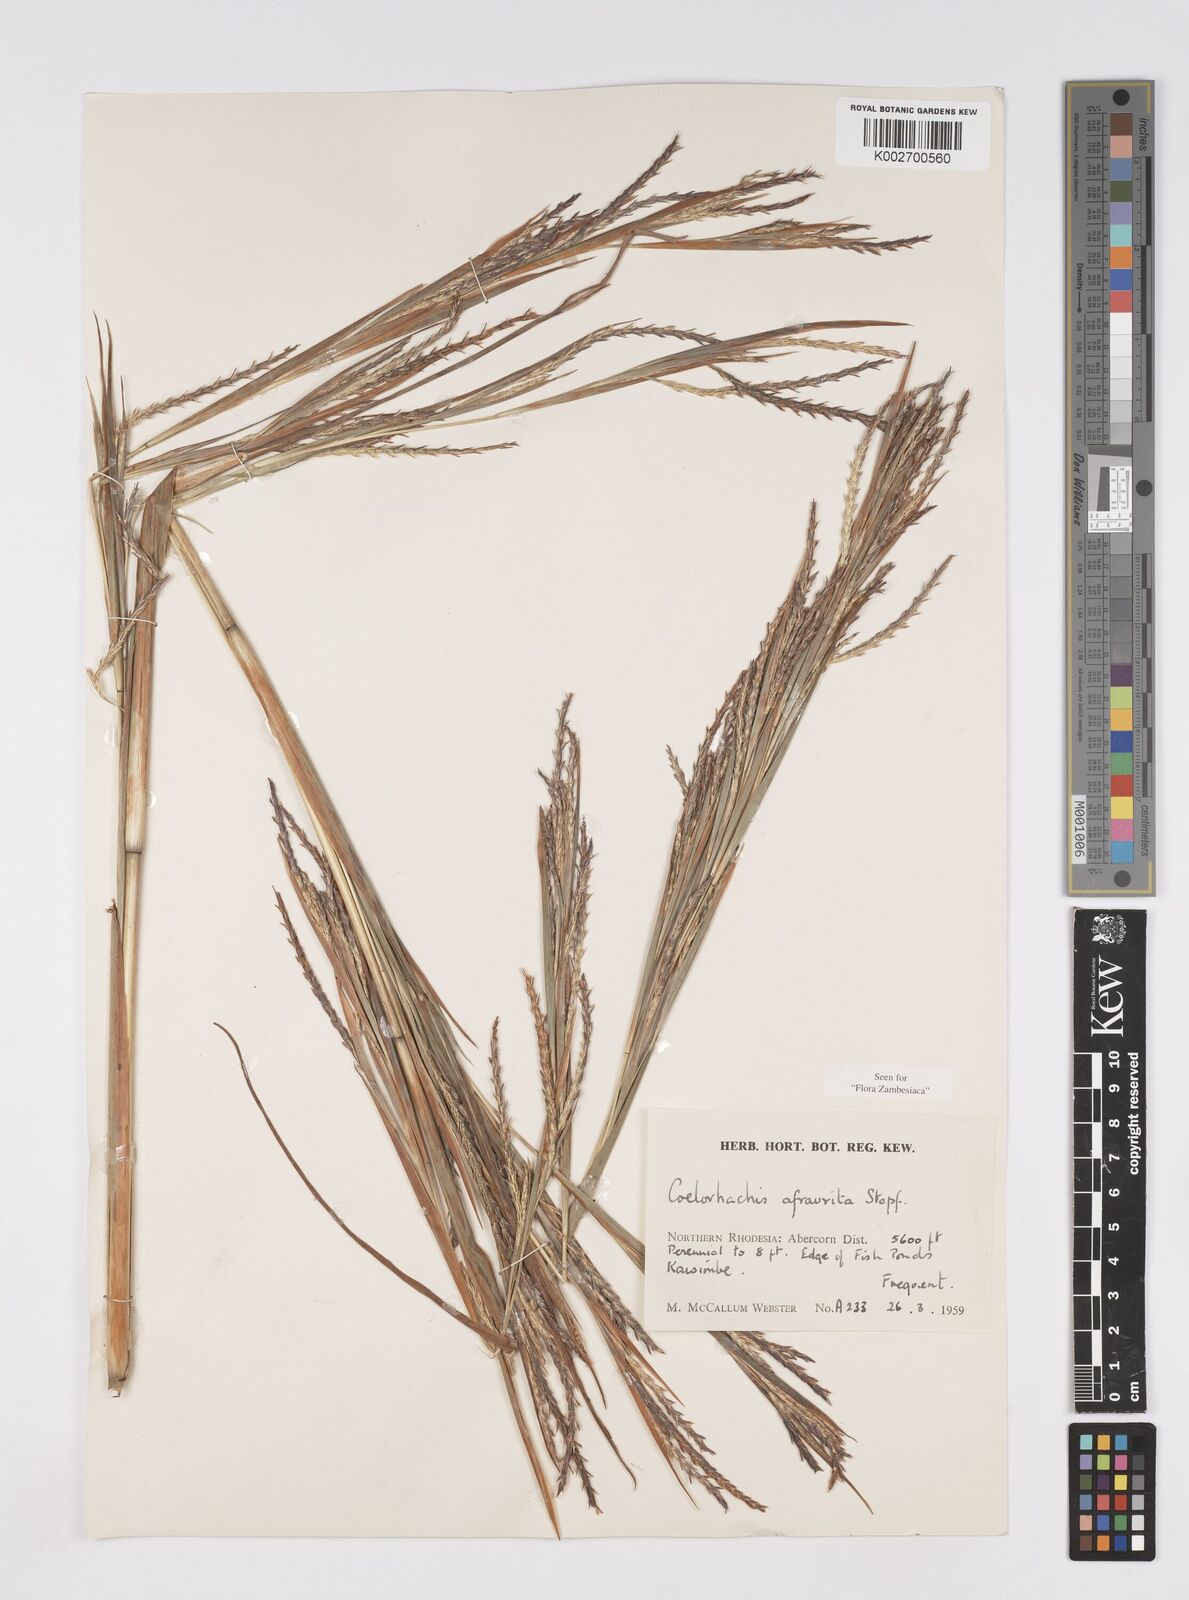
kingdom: Plantae
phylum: Tracheophyta
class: Liliopsida
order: Poales
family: Poaceae
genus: Rottboellia
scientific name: Rottboellia afraurita
